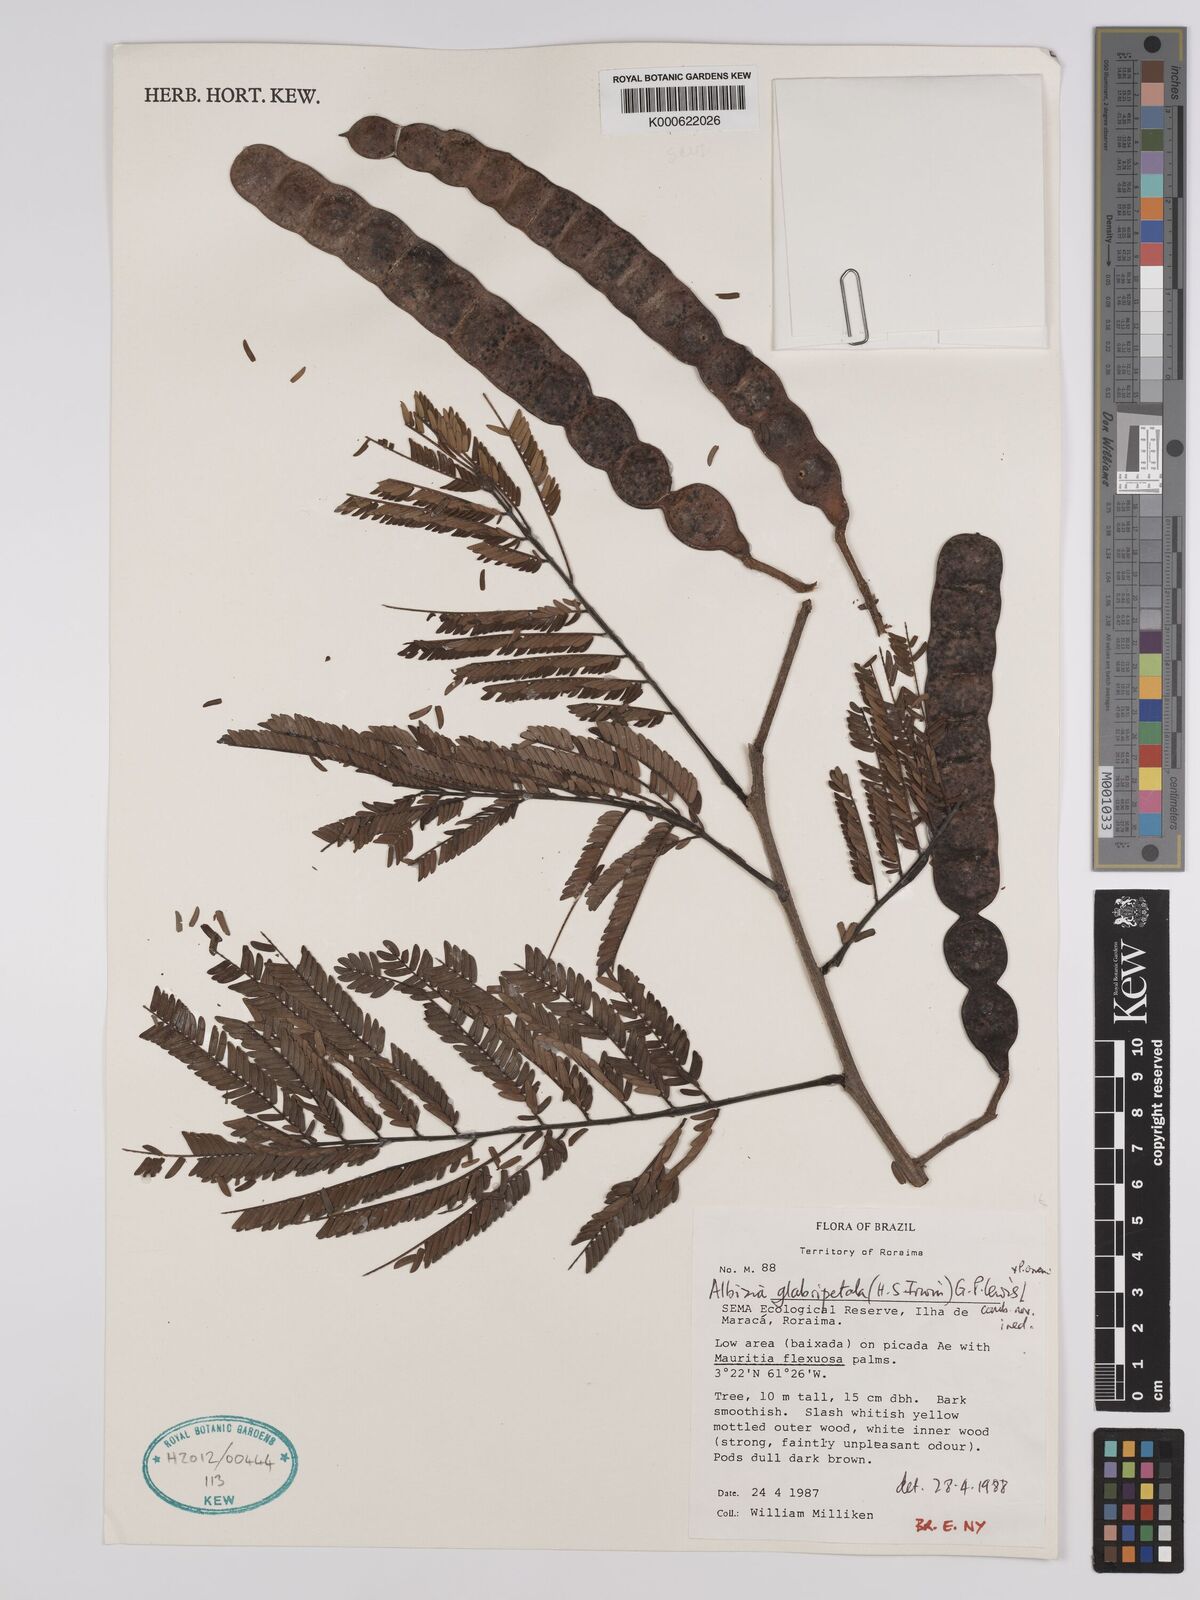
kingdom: Plantae
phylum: Tracheophyta
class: Magnoliopsida
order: Fabales
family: Fabaceae
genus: Albizia
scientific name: Albizia glabripetala
